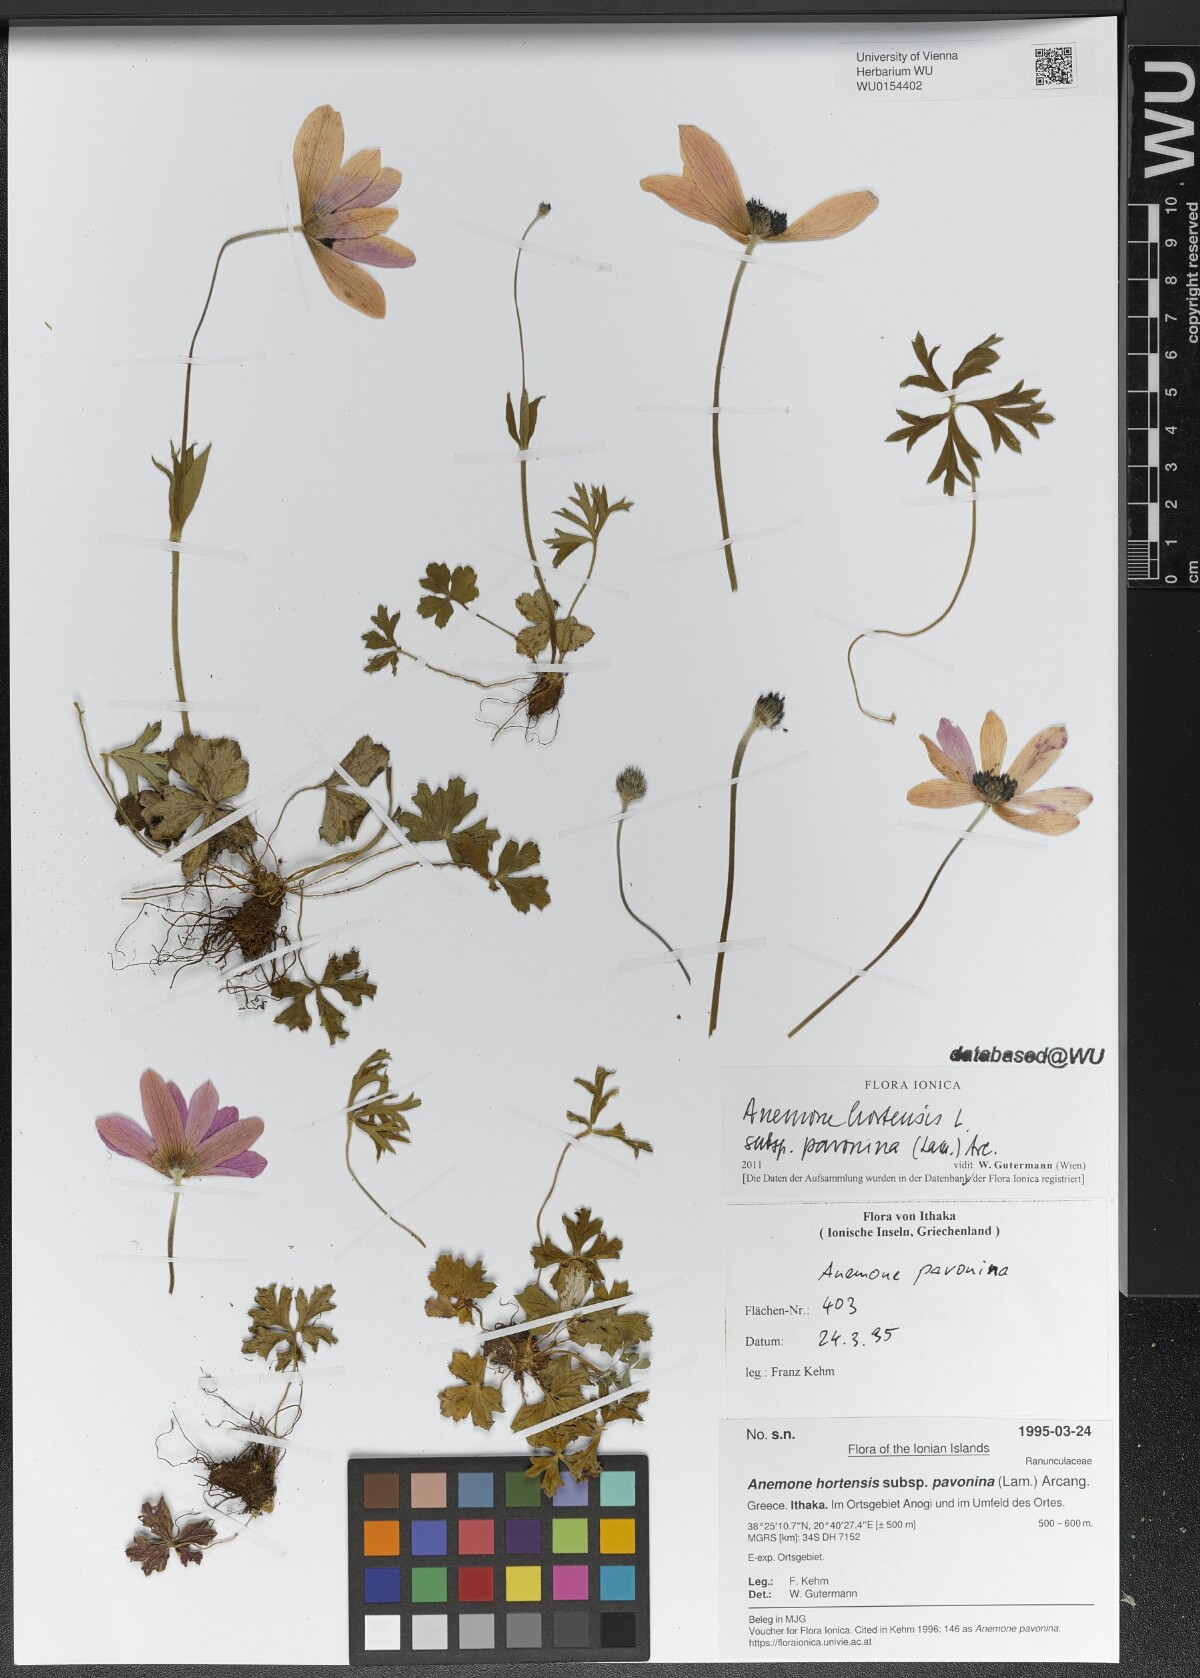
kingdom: Plantae
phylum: Tracheophyta
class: Magnoliopsida
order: Ranunculales
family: Ranunculaceae
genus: Anemone
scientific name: Anemone pavonina
